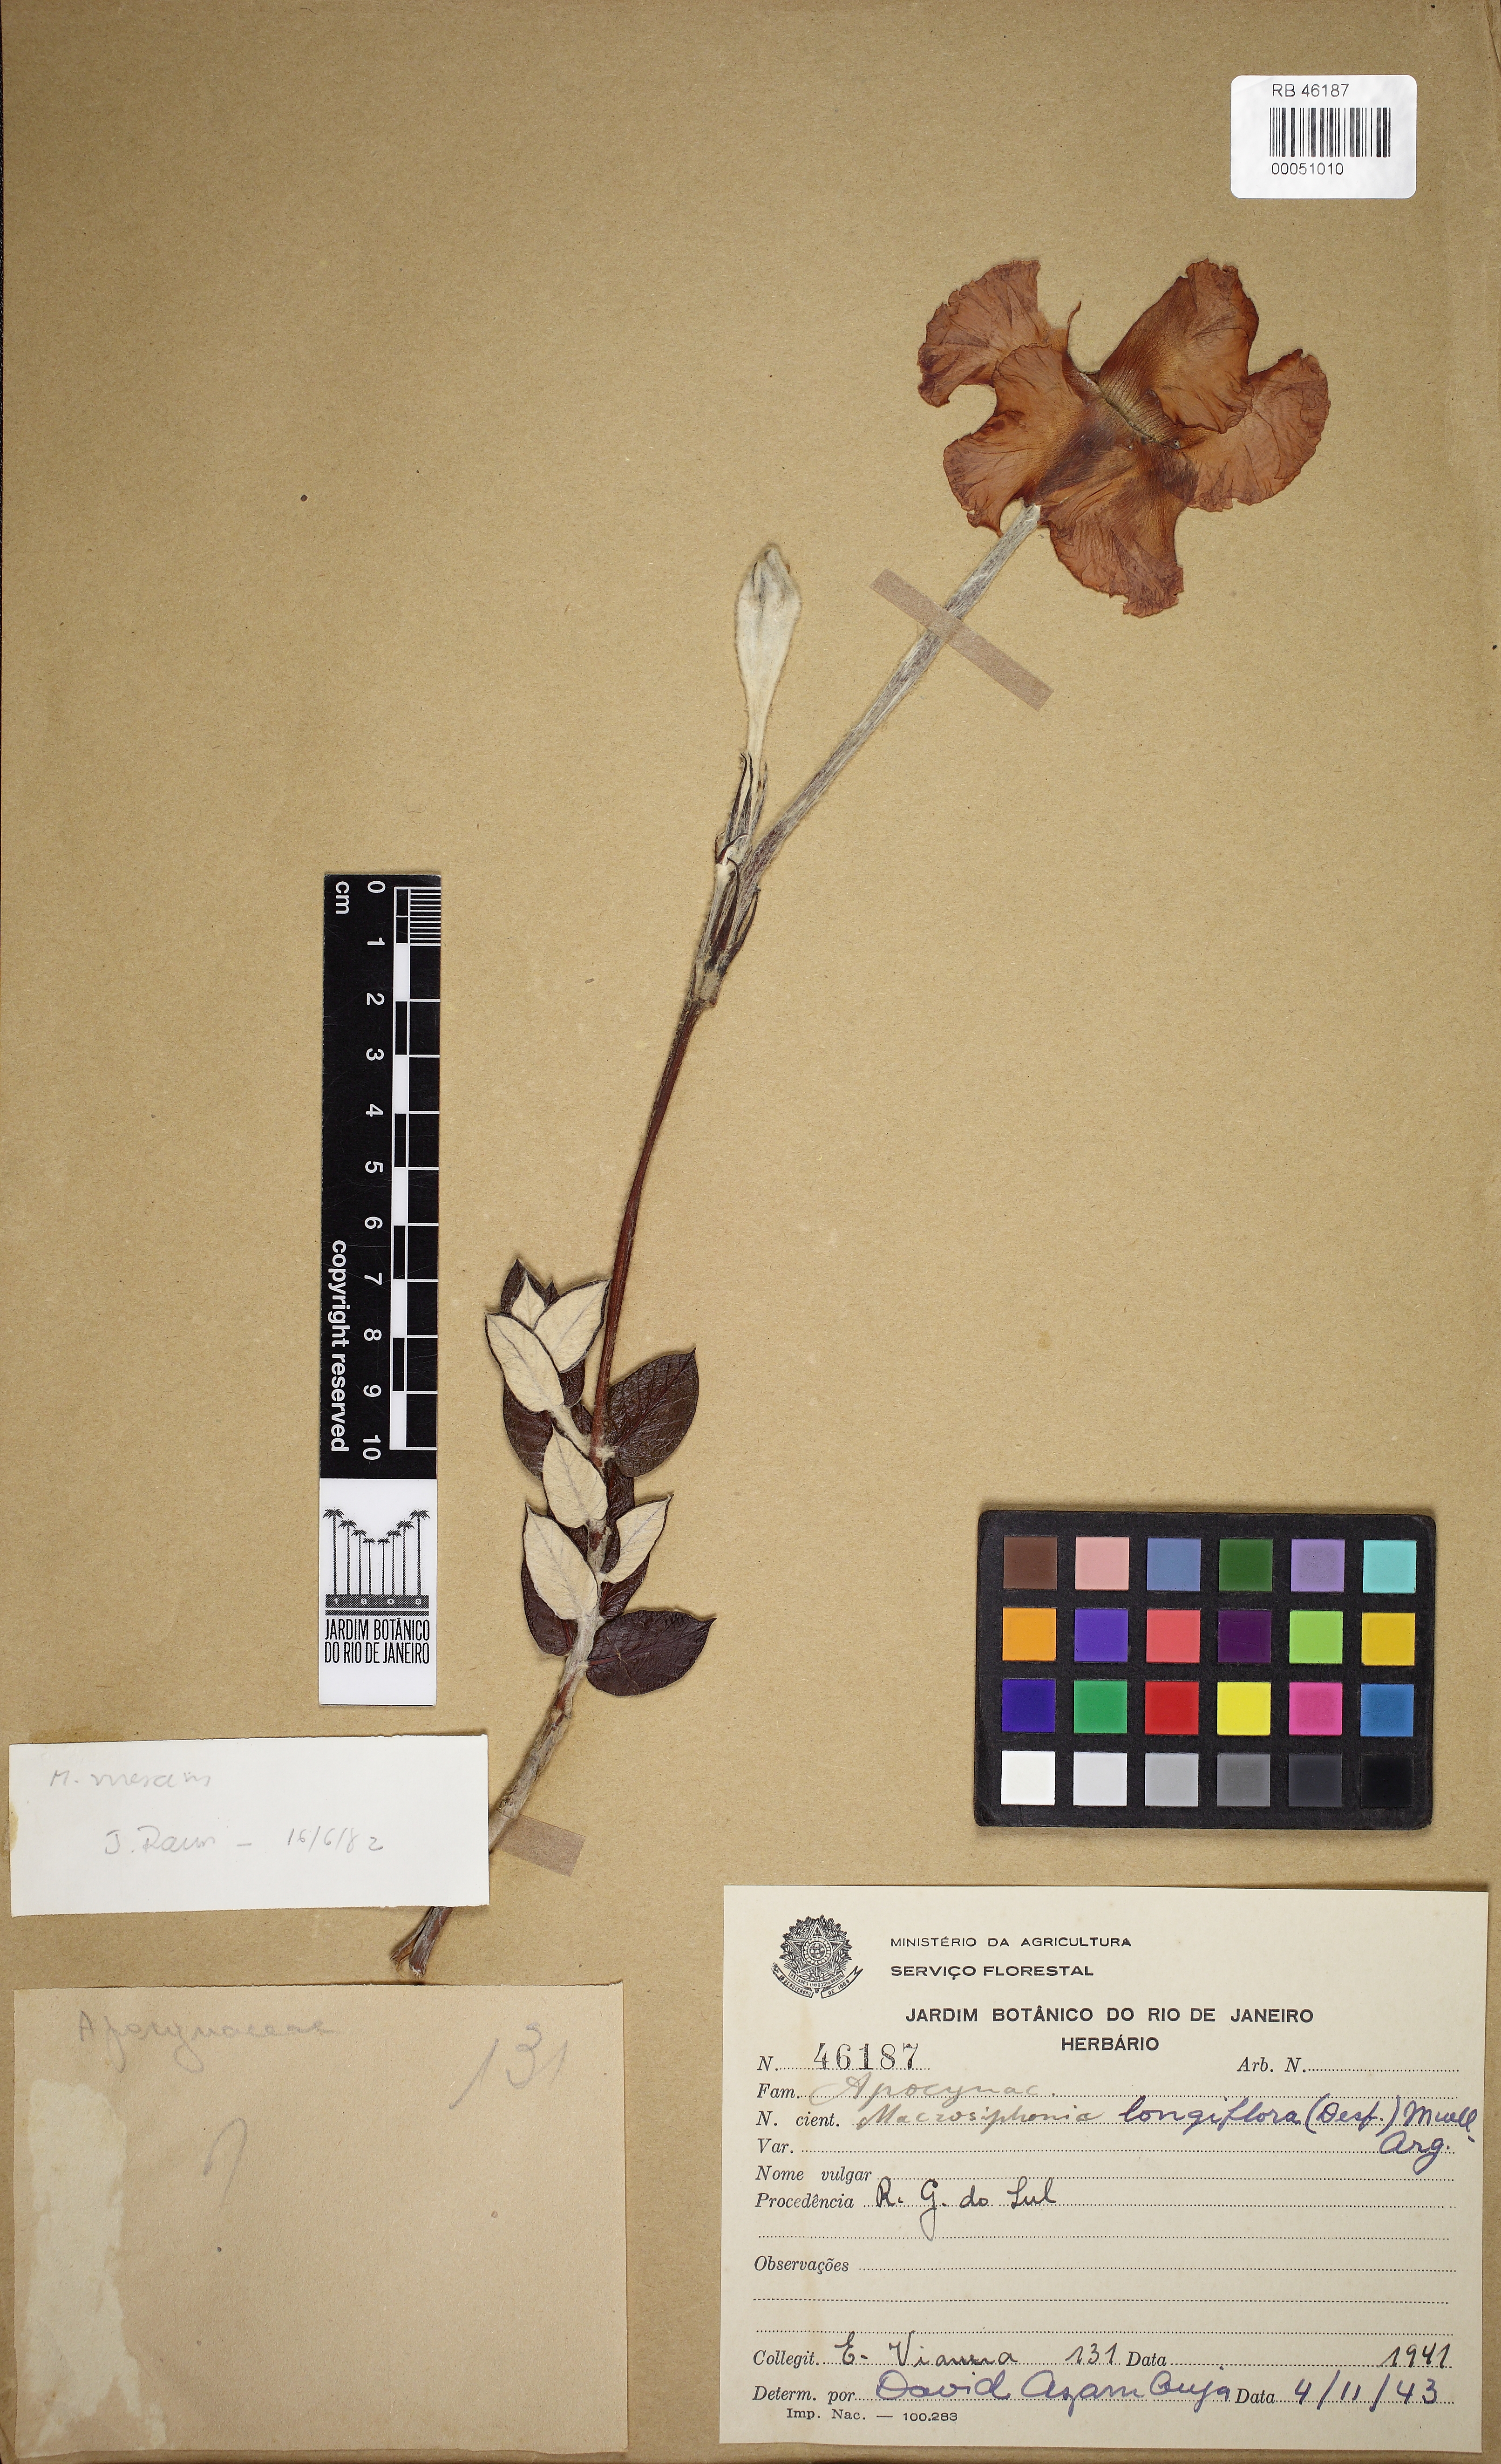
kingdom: Plantae
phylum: Tracheophyta
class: Magnoliopsida
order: Gentianales
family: Apocynaceae
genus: Mandevilla
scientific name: Mandevilla longiflora
